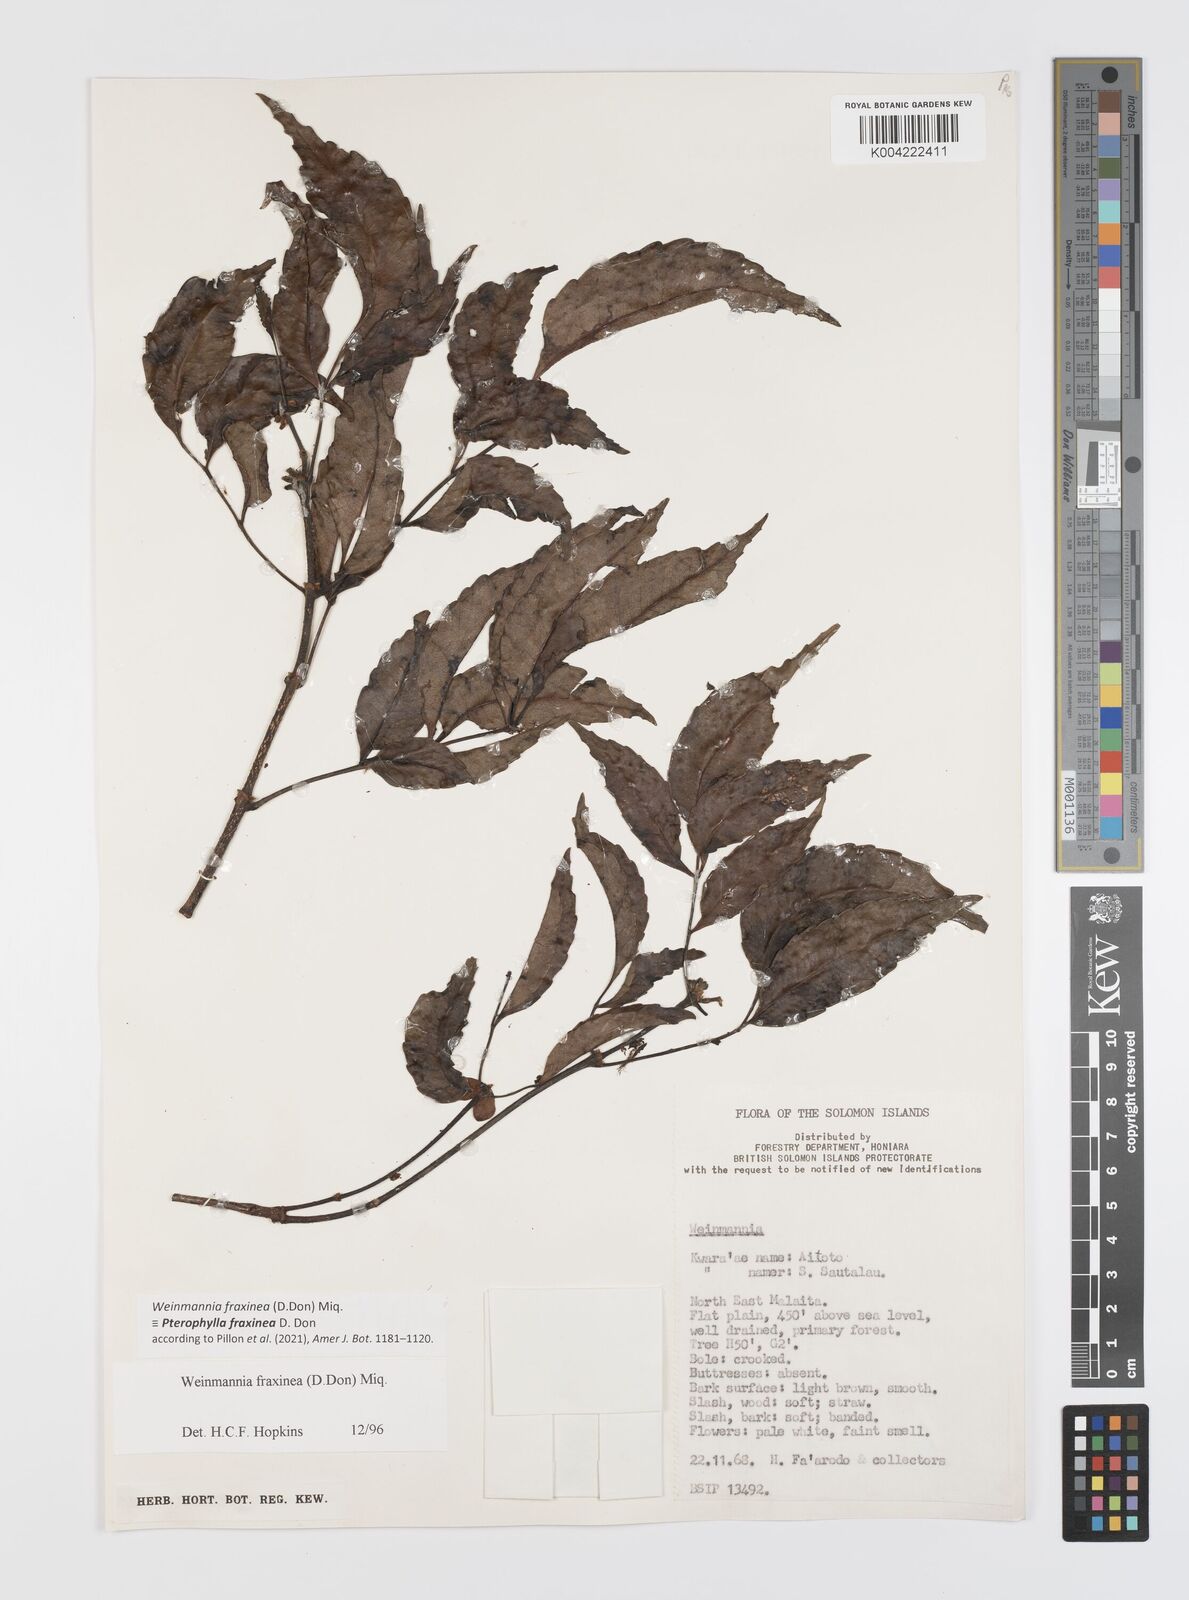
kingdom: Plantae
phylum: Tracheophyta
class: Magnoliopsida
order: Oxalidales
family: Cunoniaceae
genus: Pterophylla
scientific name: Pterophylla fraxinea
